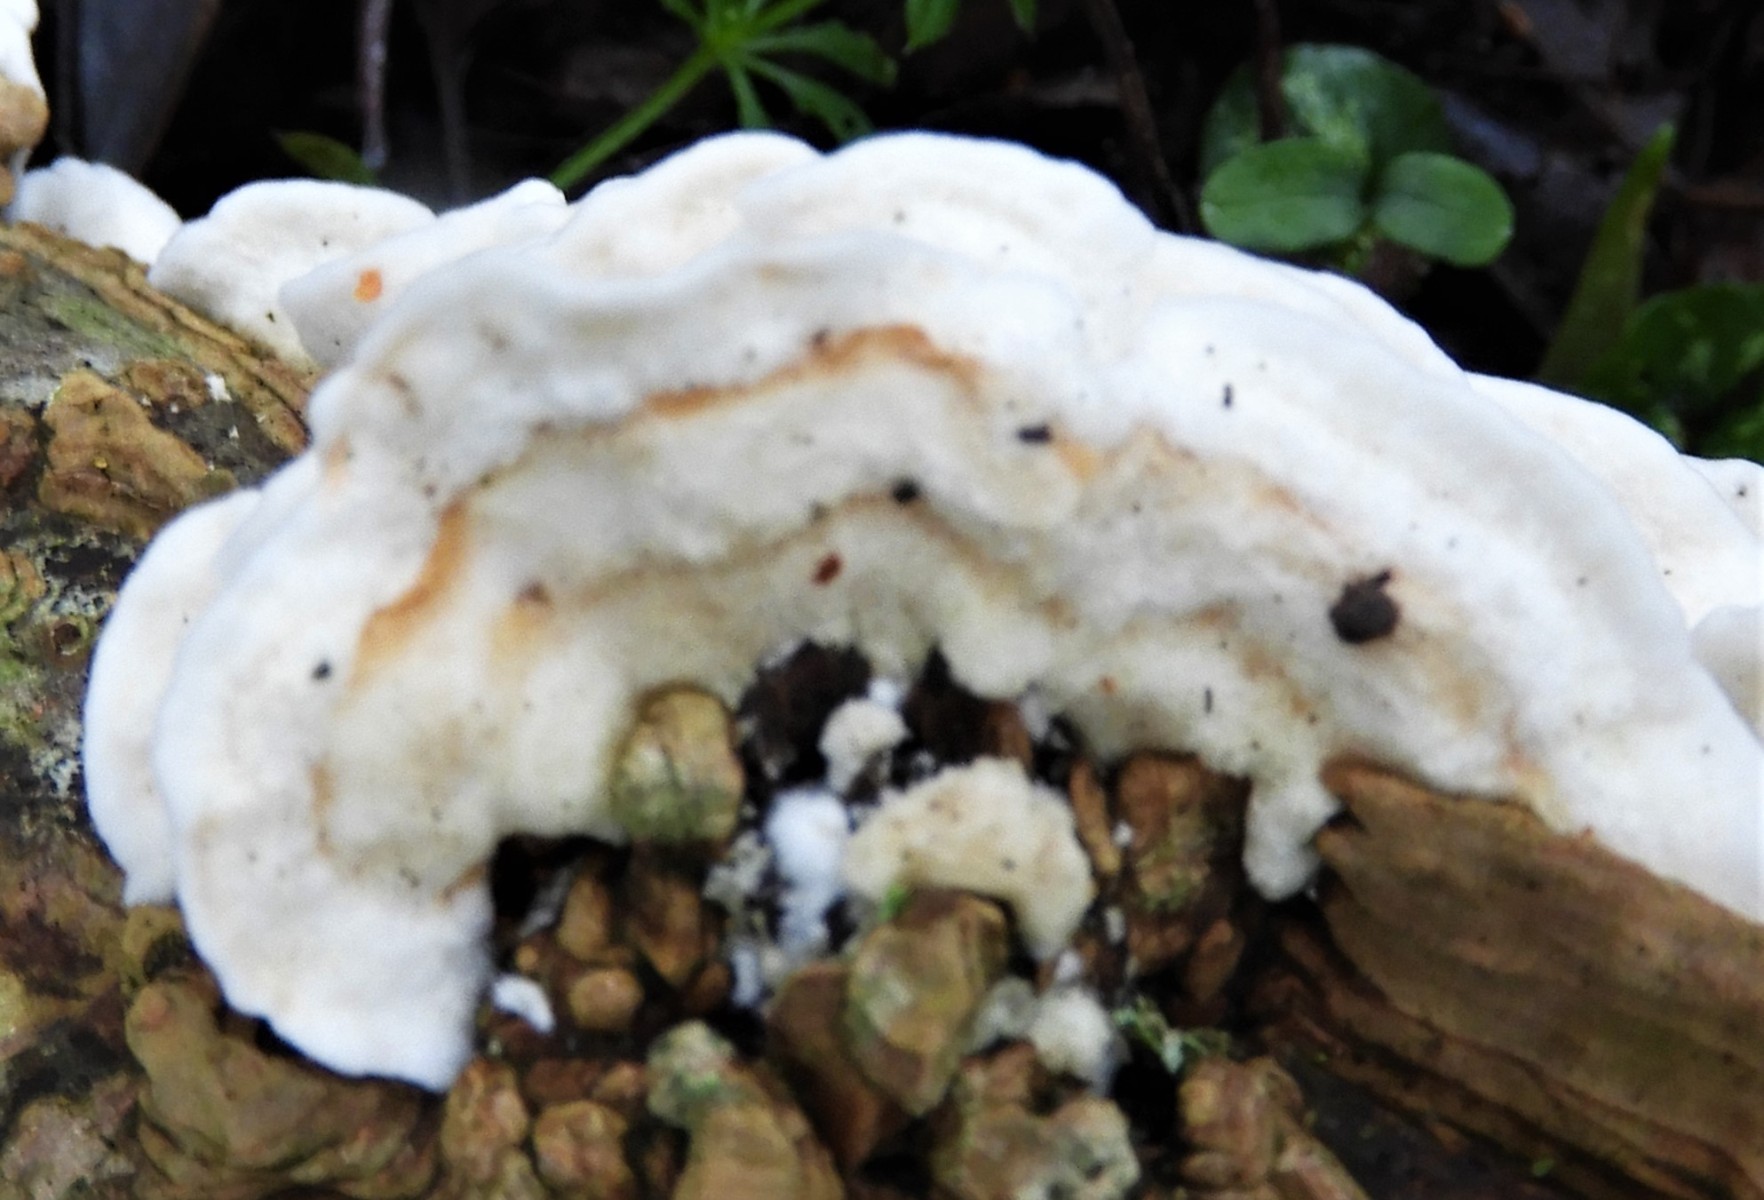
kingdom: Fungi
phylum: Basidiomycota
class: Agaricomycetes
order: Polyporales
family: Irpicaceae
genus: Byssomerulius
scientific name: Byssomerulius corium
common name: læder-åresvamp
